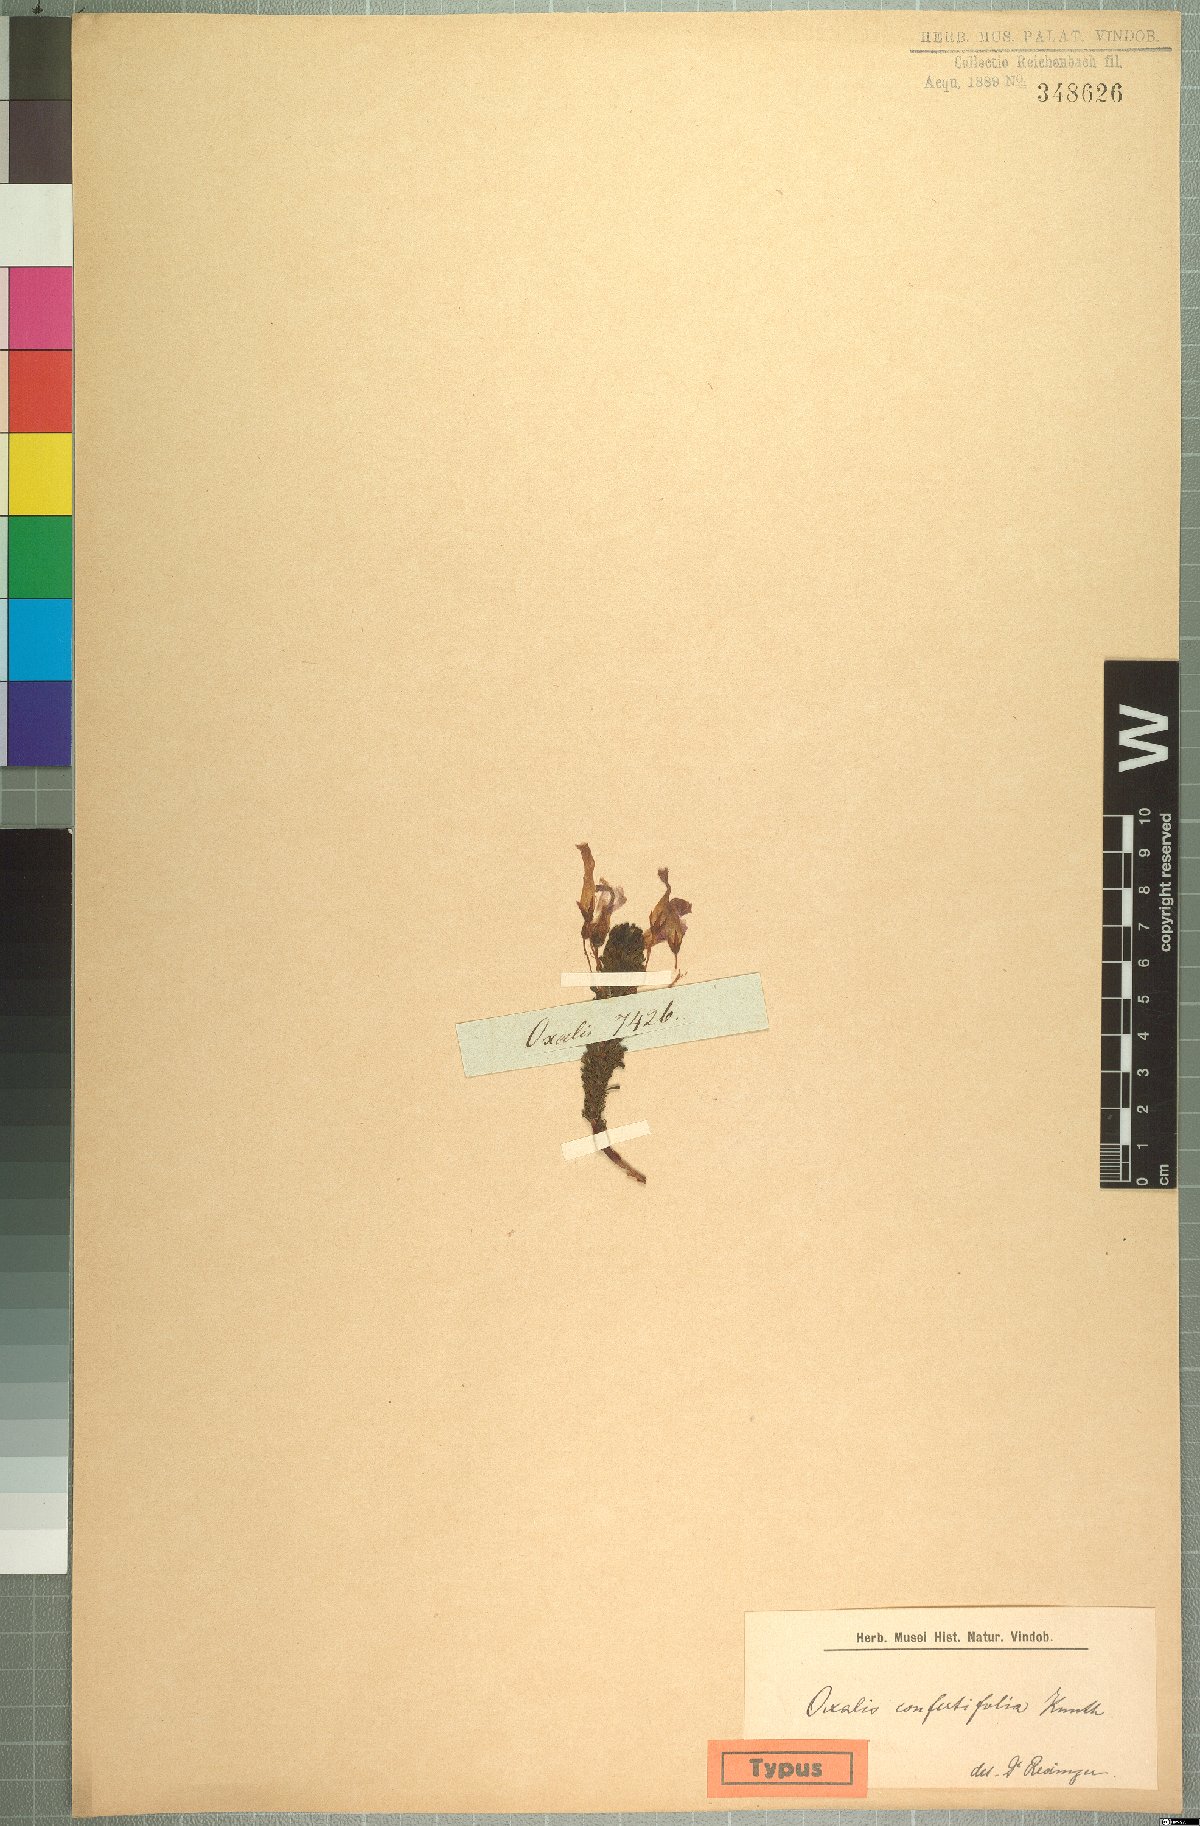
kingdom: Plantae
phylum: Tracheophyta
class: Magnoliopsida
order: Oxalidales
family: Oxalidaceae
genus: Oxalis
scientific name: Oxalis confertifolia
